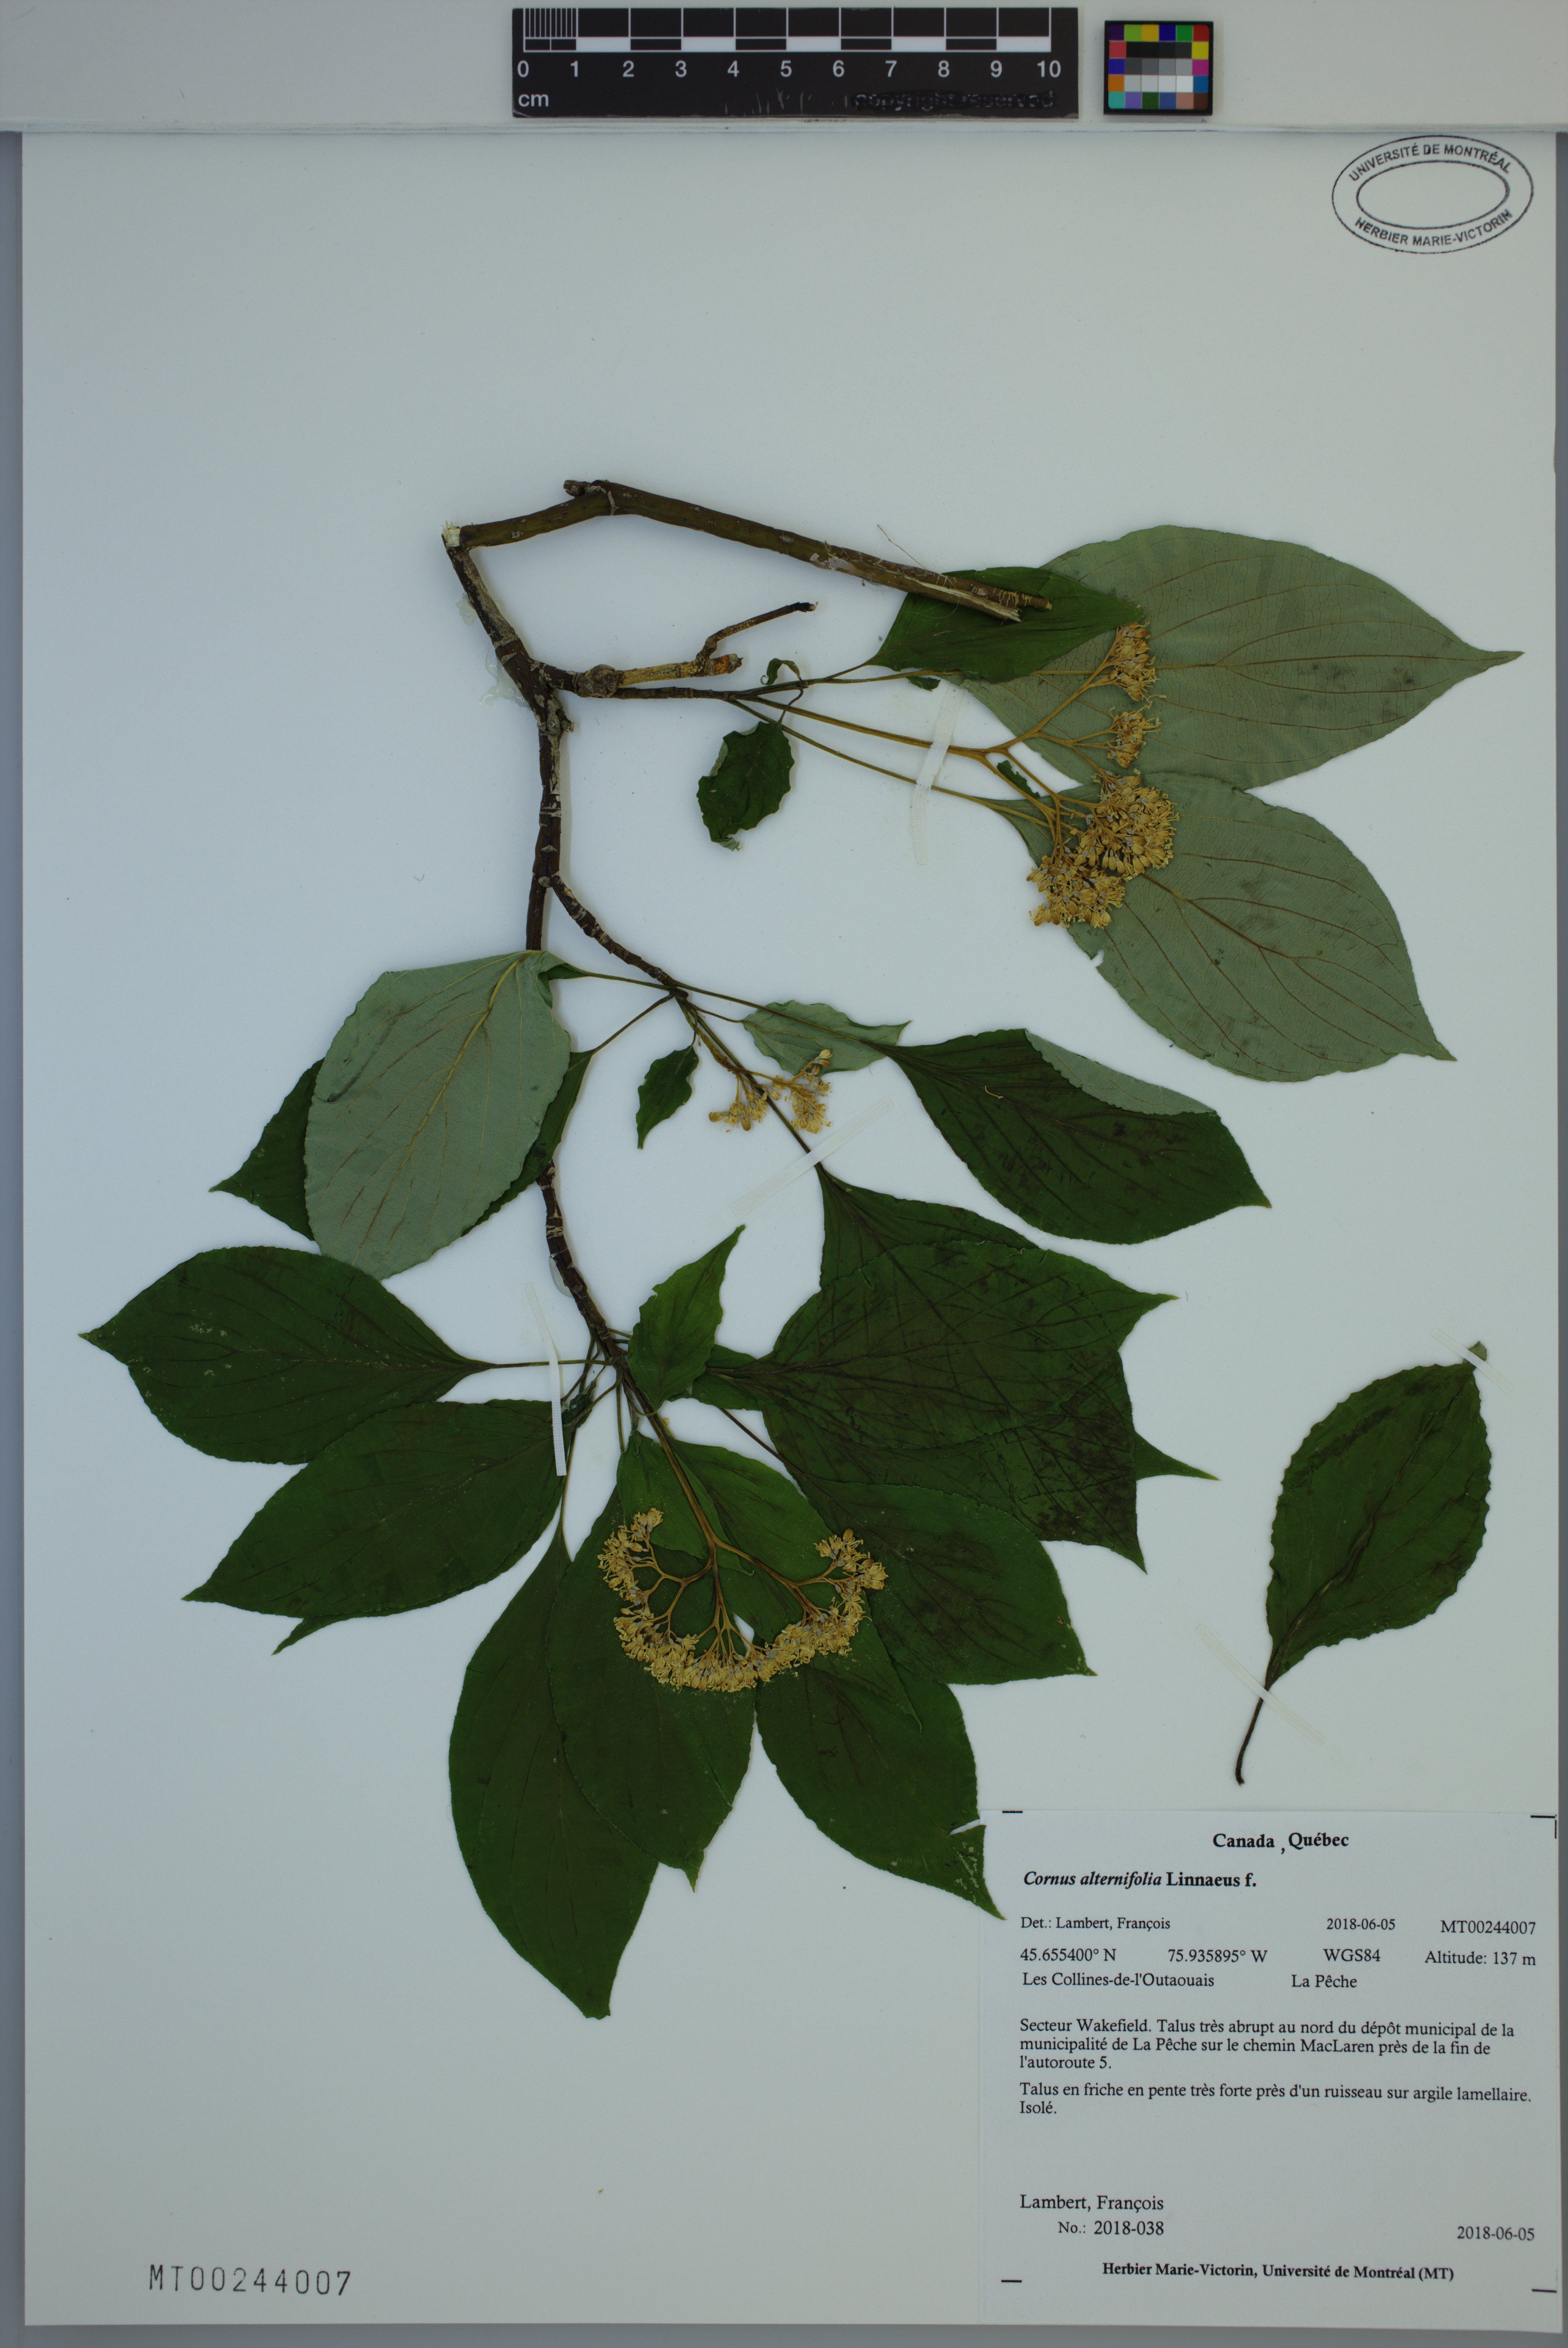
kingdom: Plantae
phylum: Tracheophyta
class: Magnoliopsida
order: Cornales
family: Cornaceae
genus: Cornus
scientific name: Cornus alternifolia
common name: Pagoda dogwood
